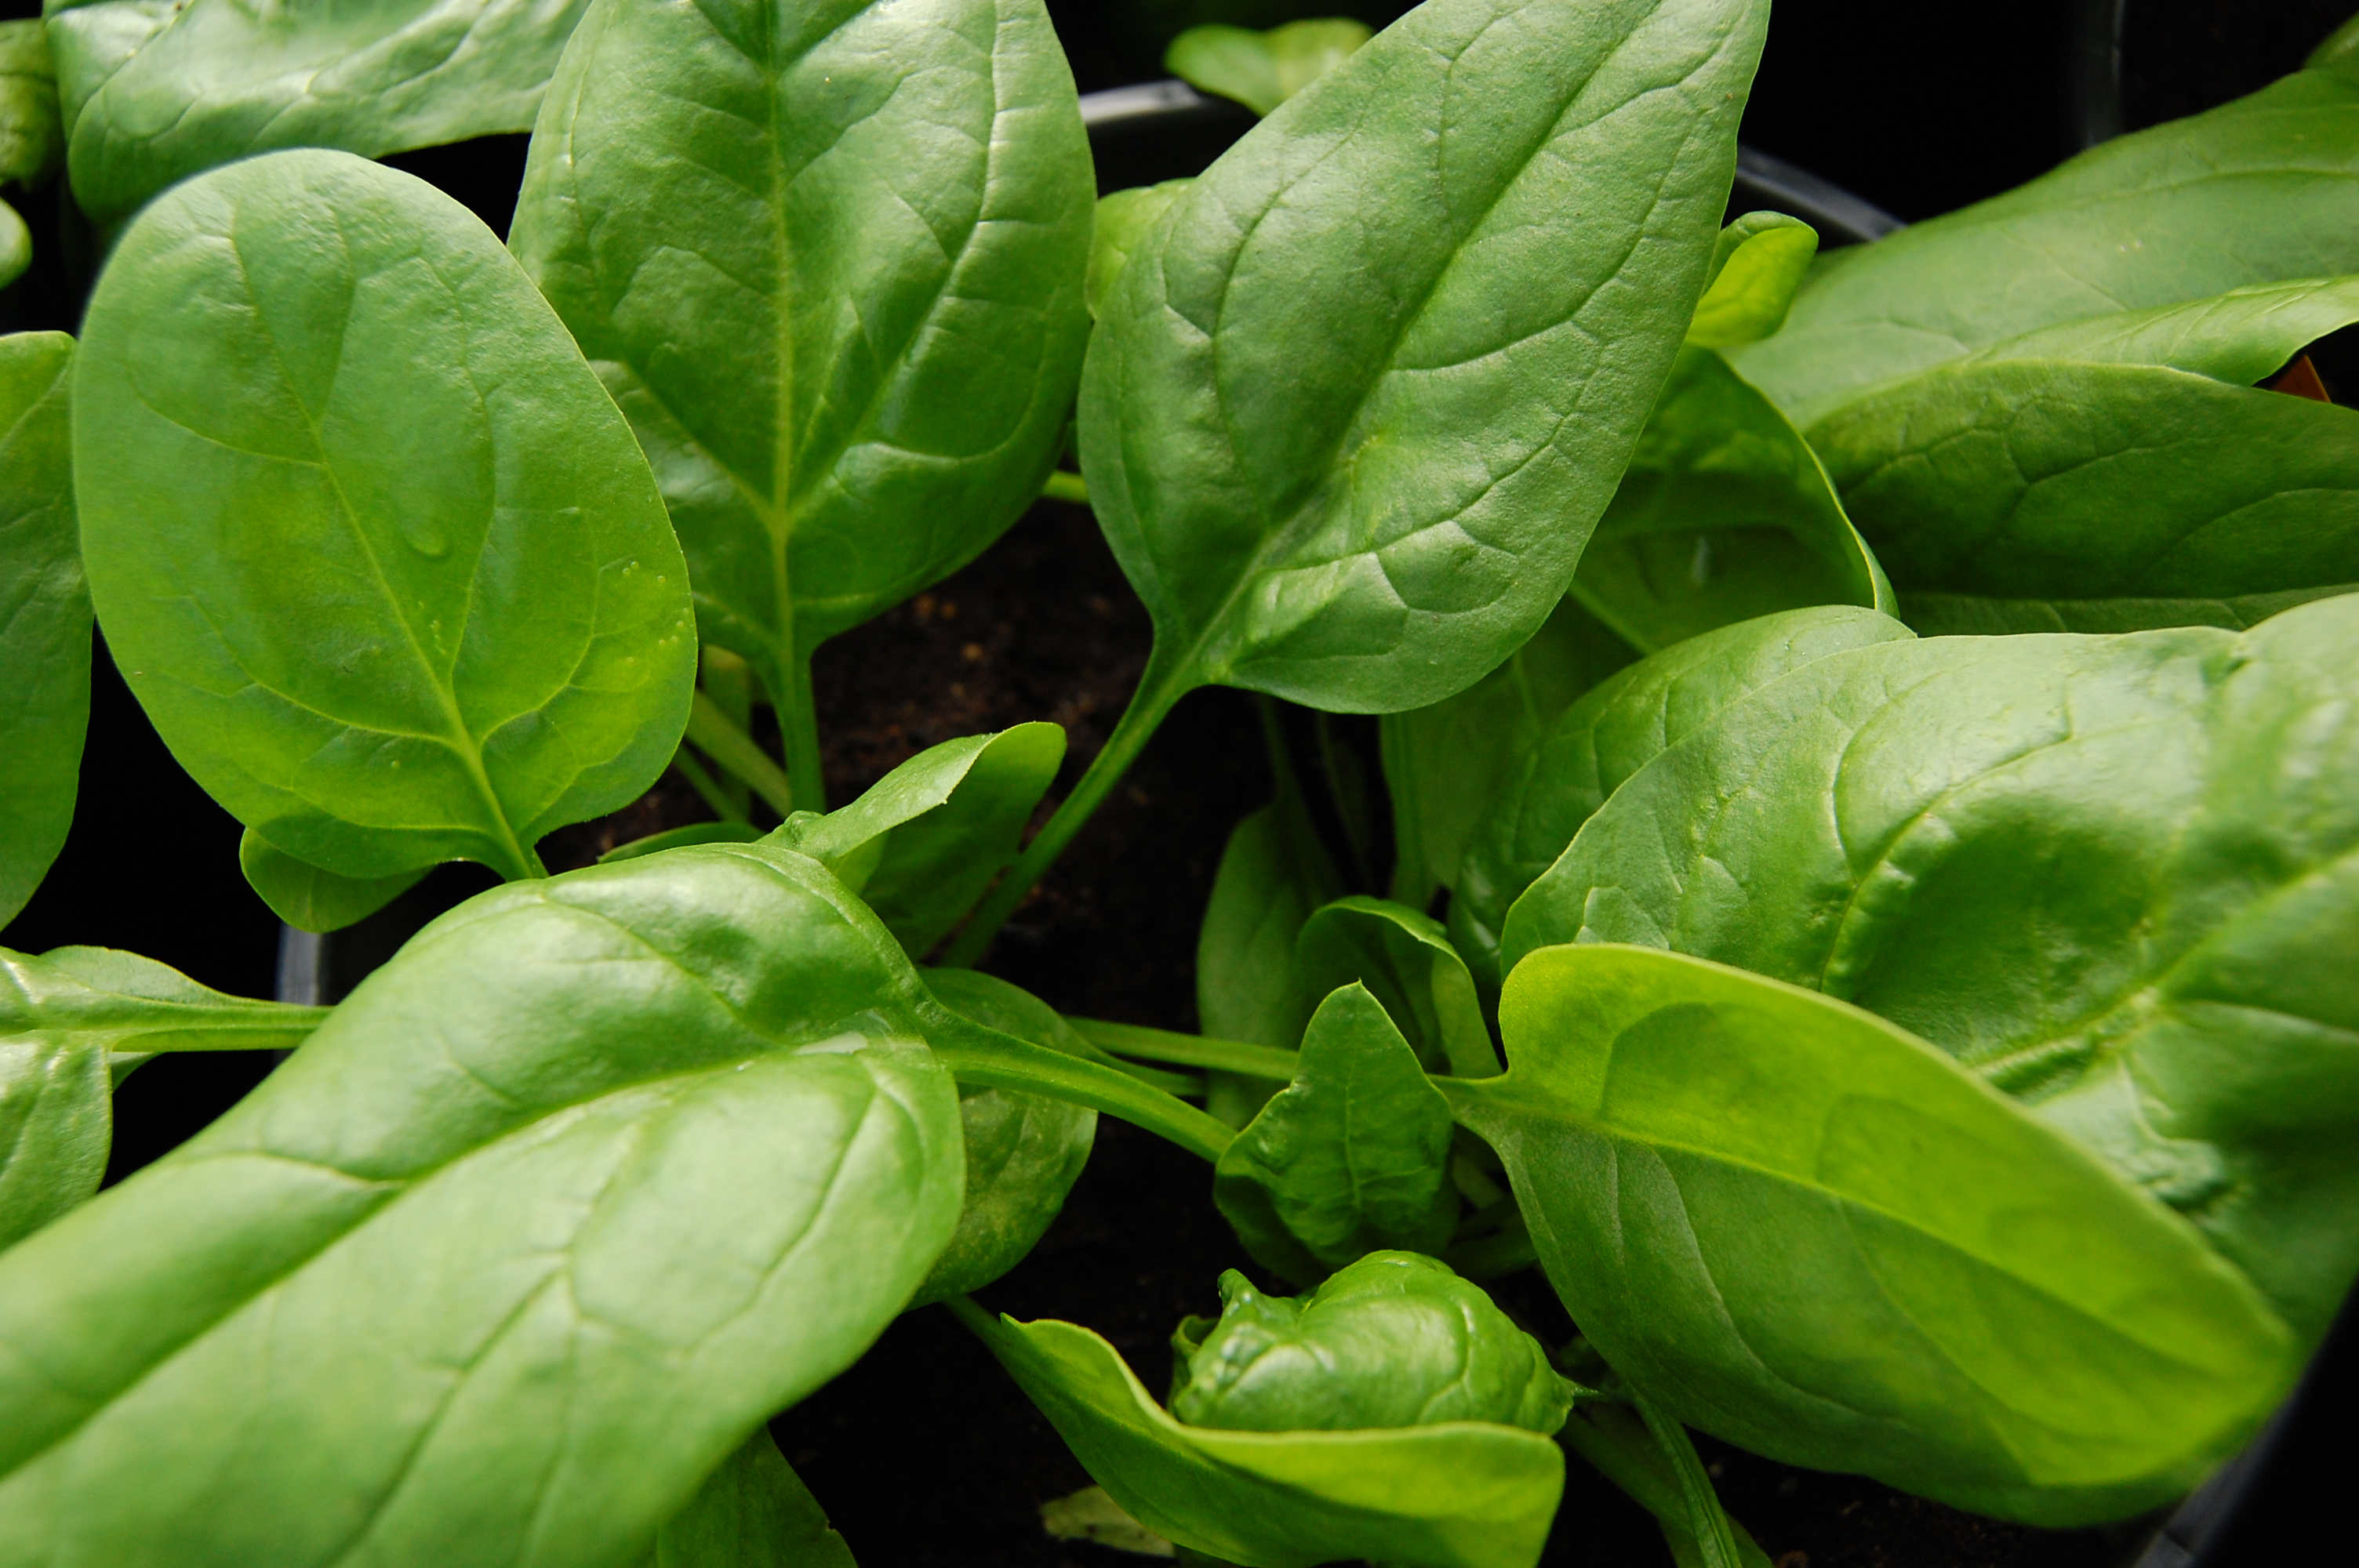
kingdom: Plantae
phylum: Tracheophyta
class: Magnoliopsida
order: Caryophyllales
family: Amaranthaceae
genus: Spinacia
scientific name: Spinacia oleracea
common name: Spinach
